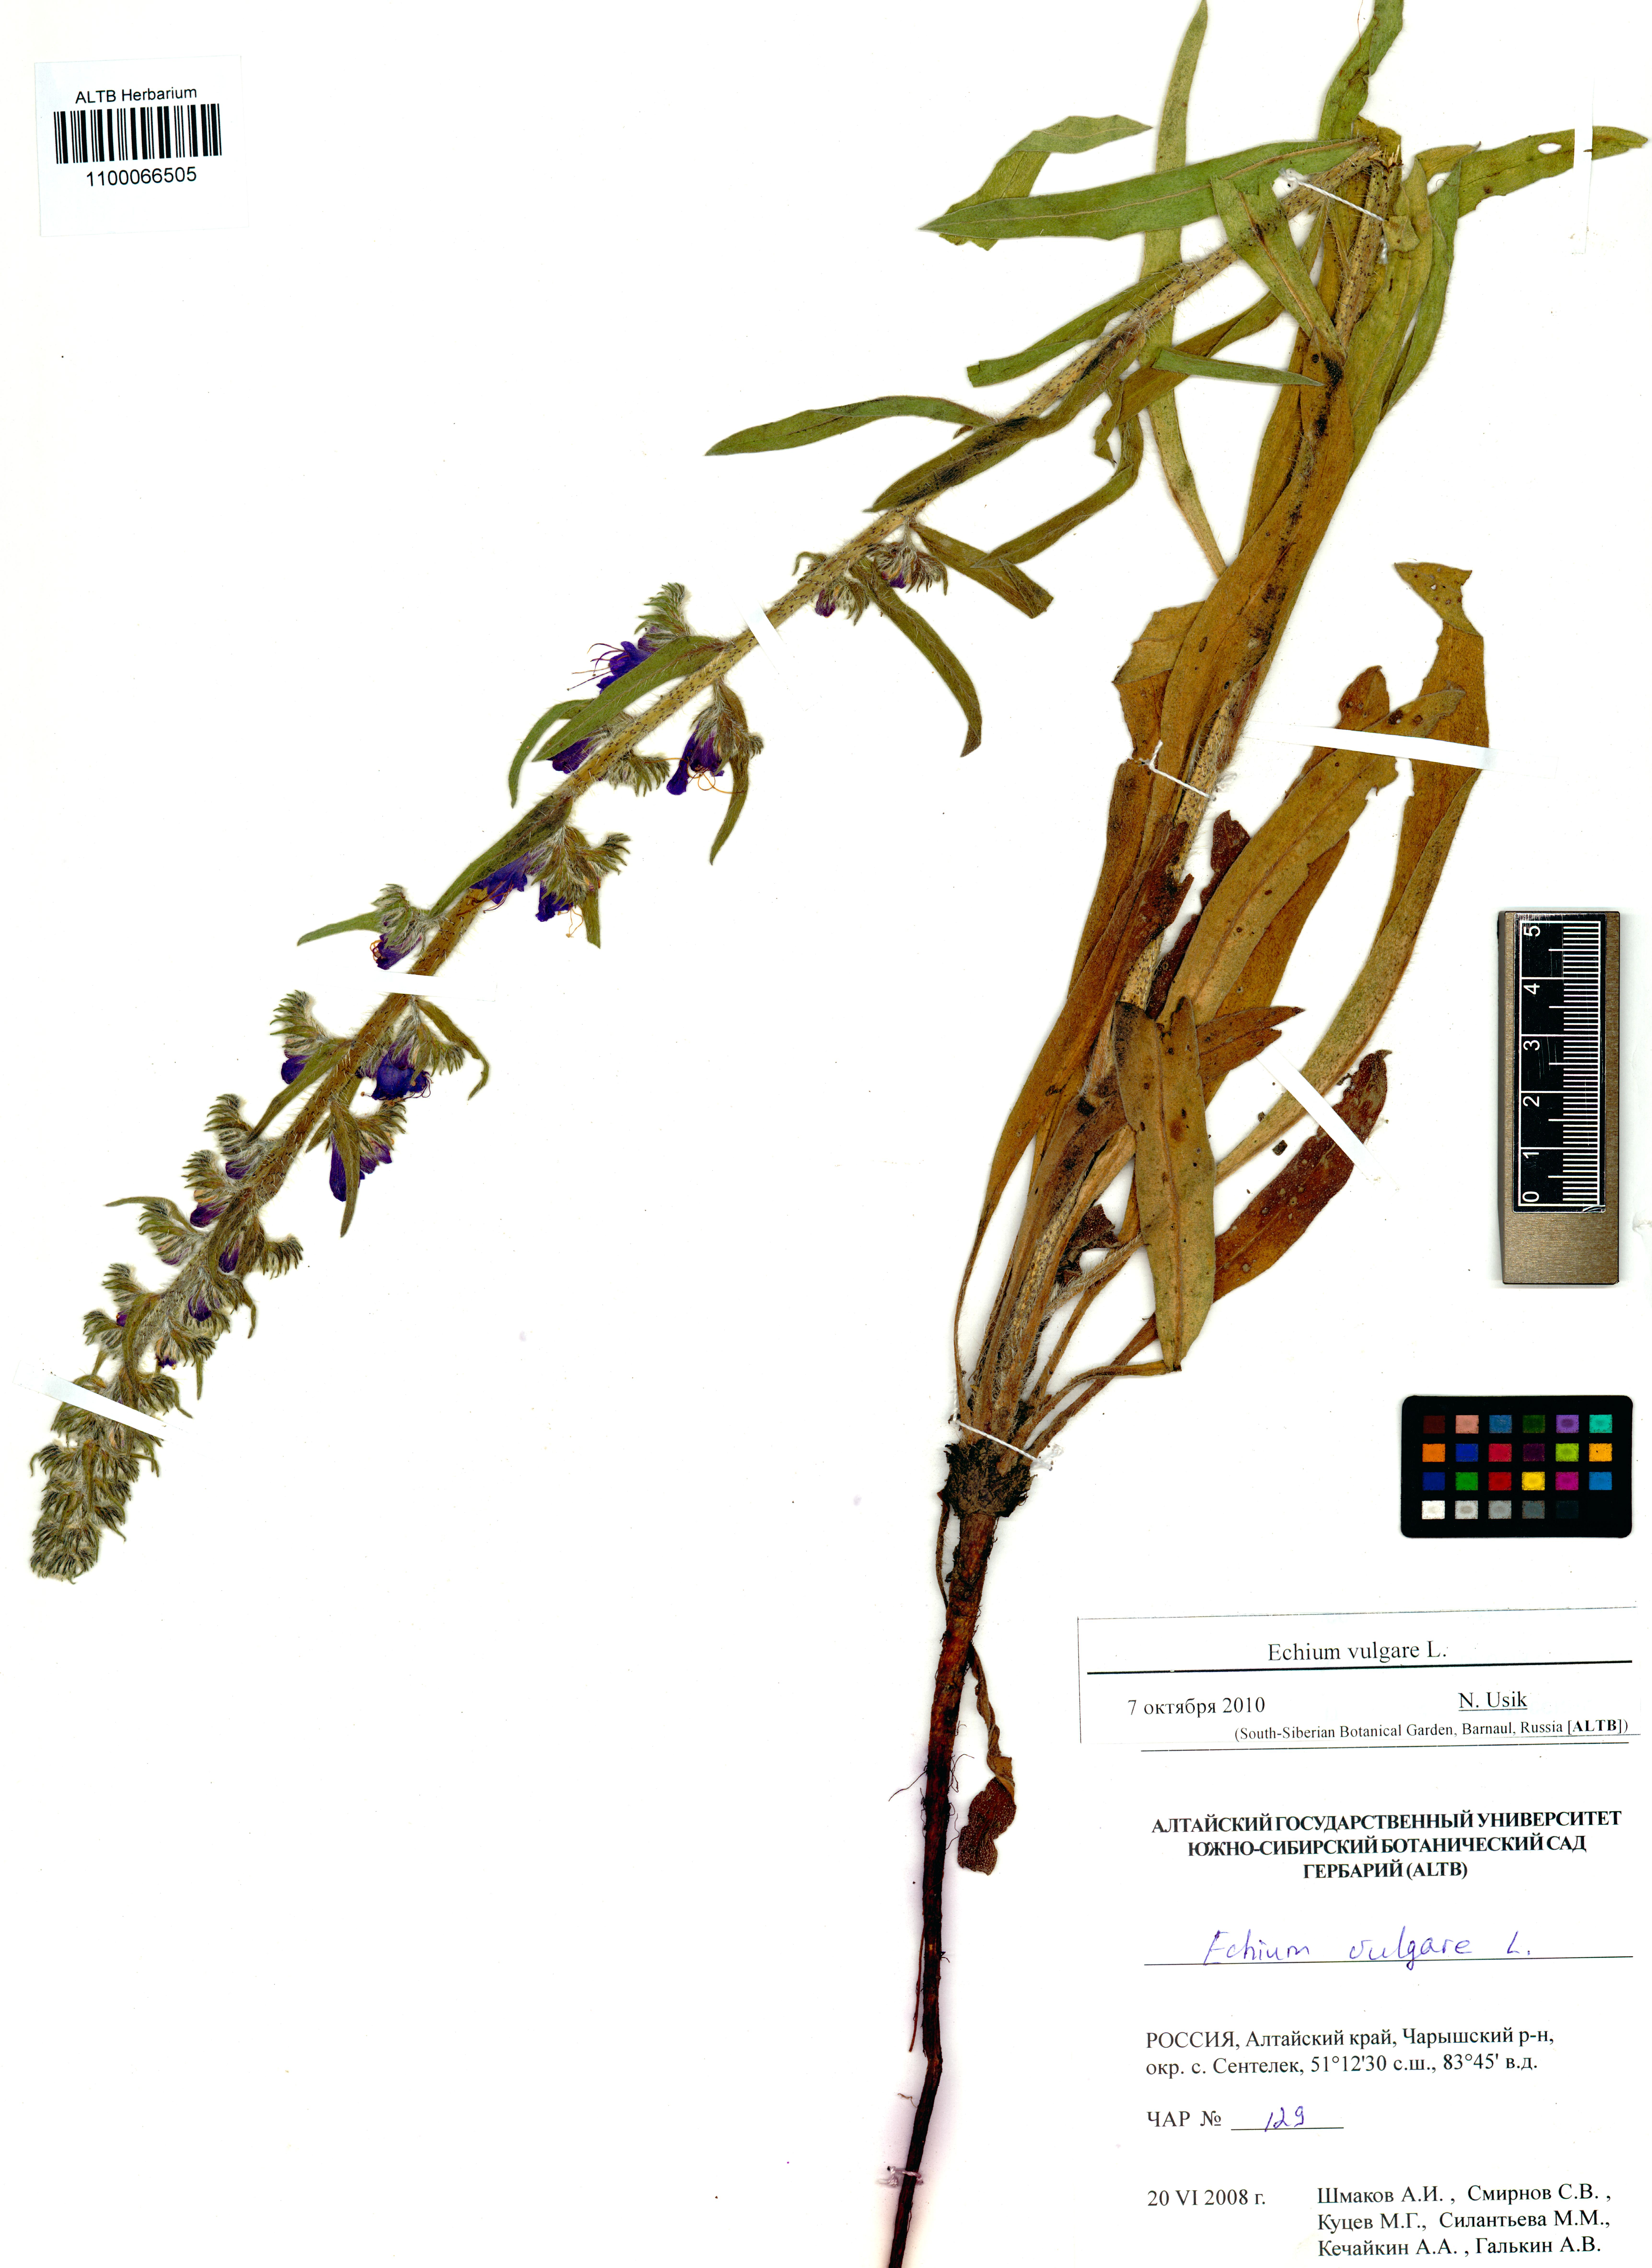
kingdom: Plantae
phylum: Tracheophyta
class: Magnoliopsida
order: Boraginales
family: Boraginaceae
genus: Echium
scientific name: Echium vulgare
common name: Common viper's bugloss
